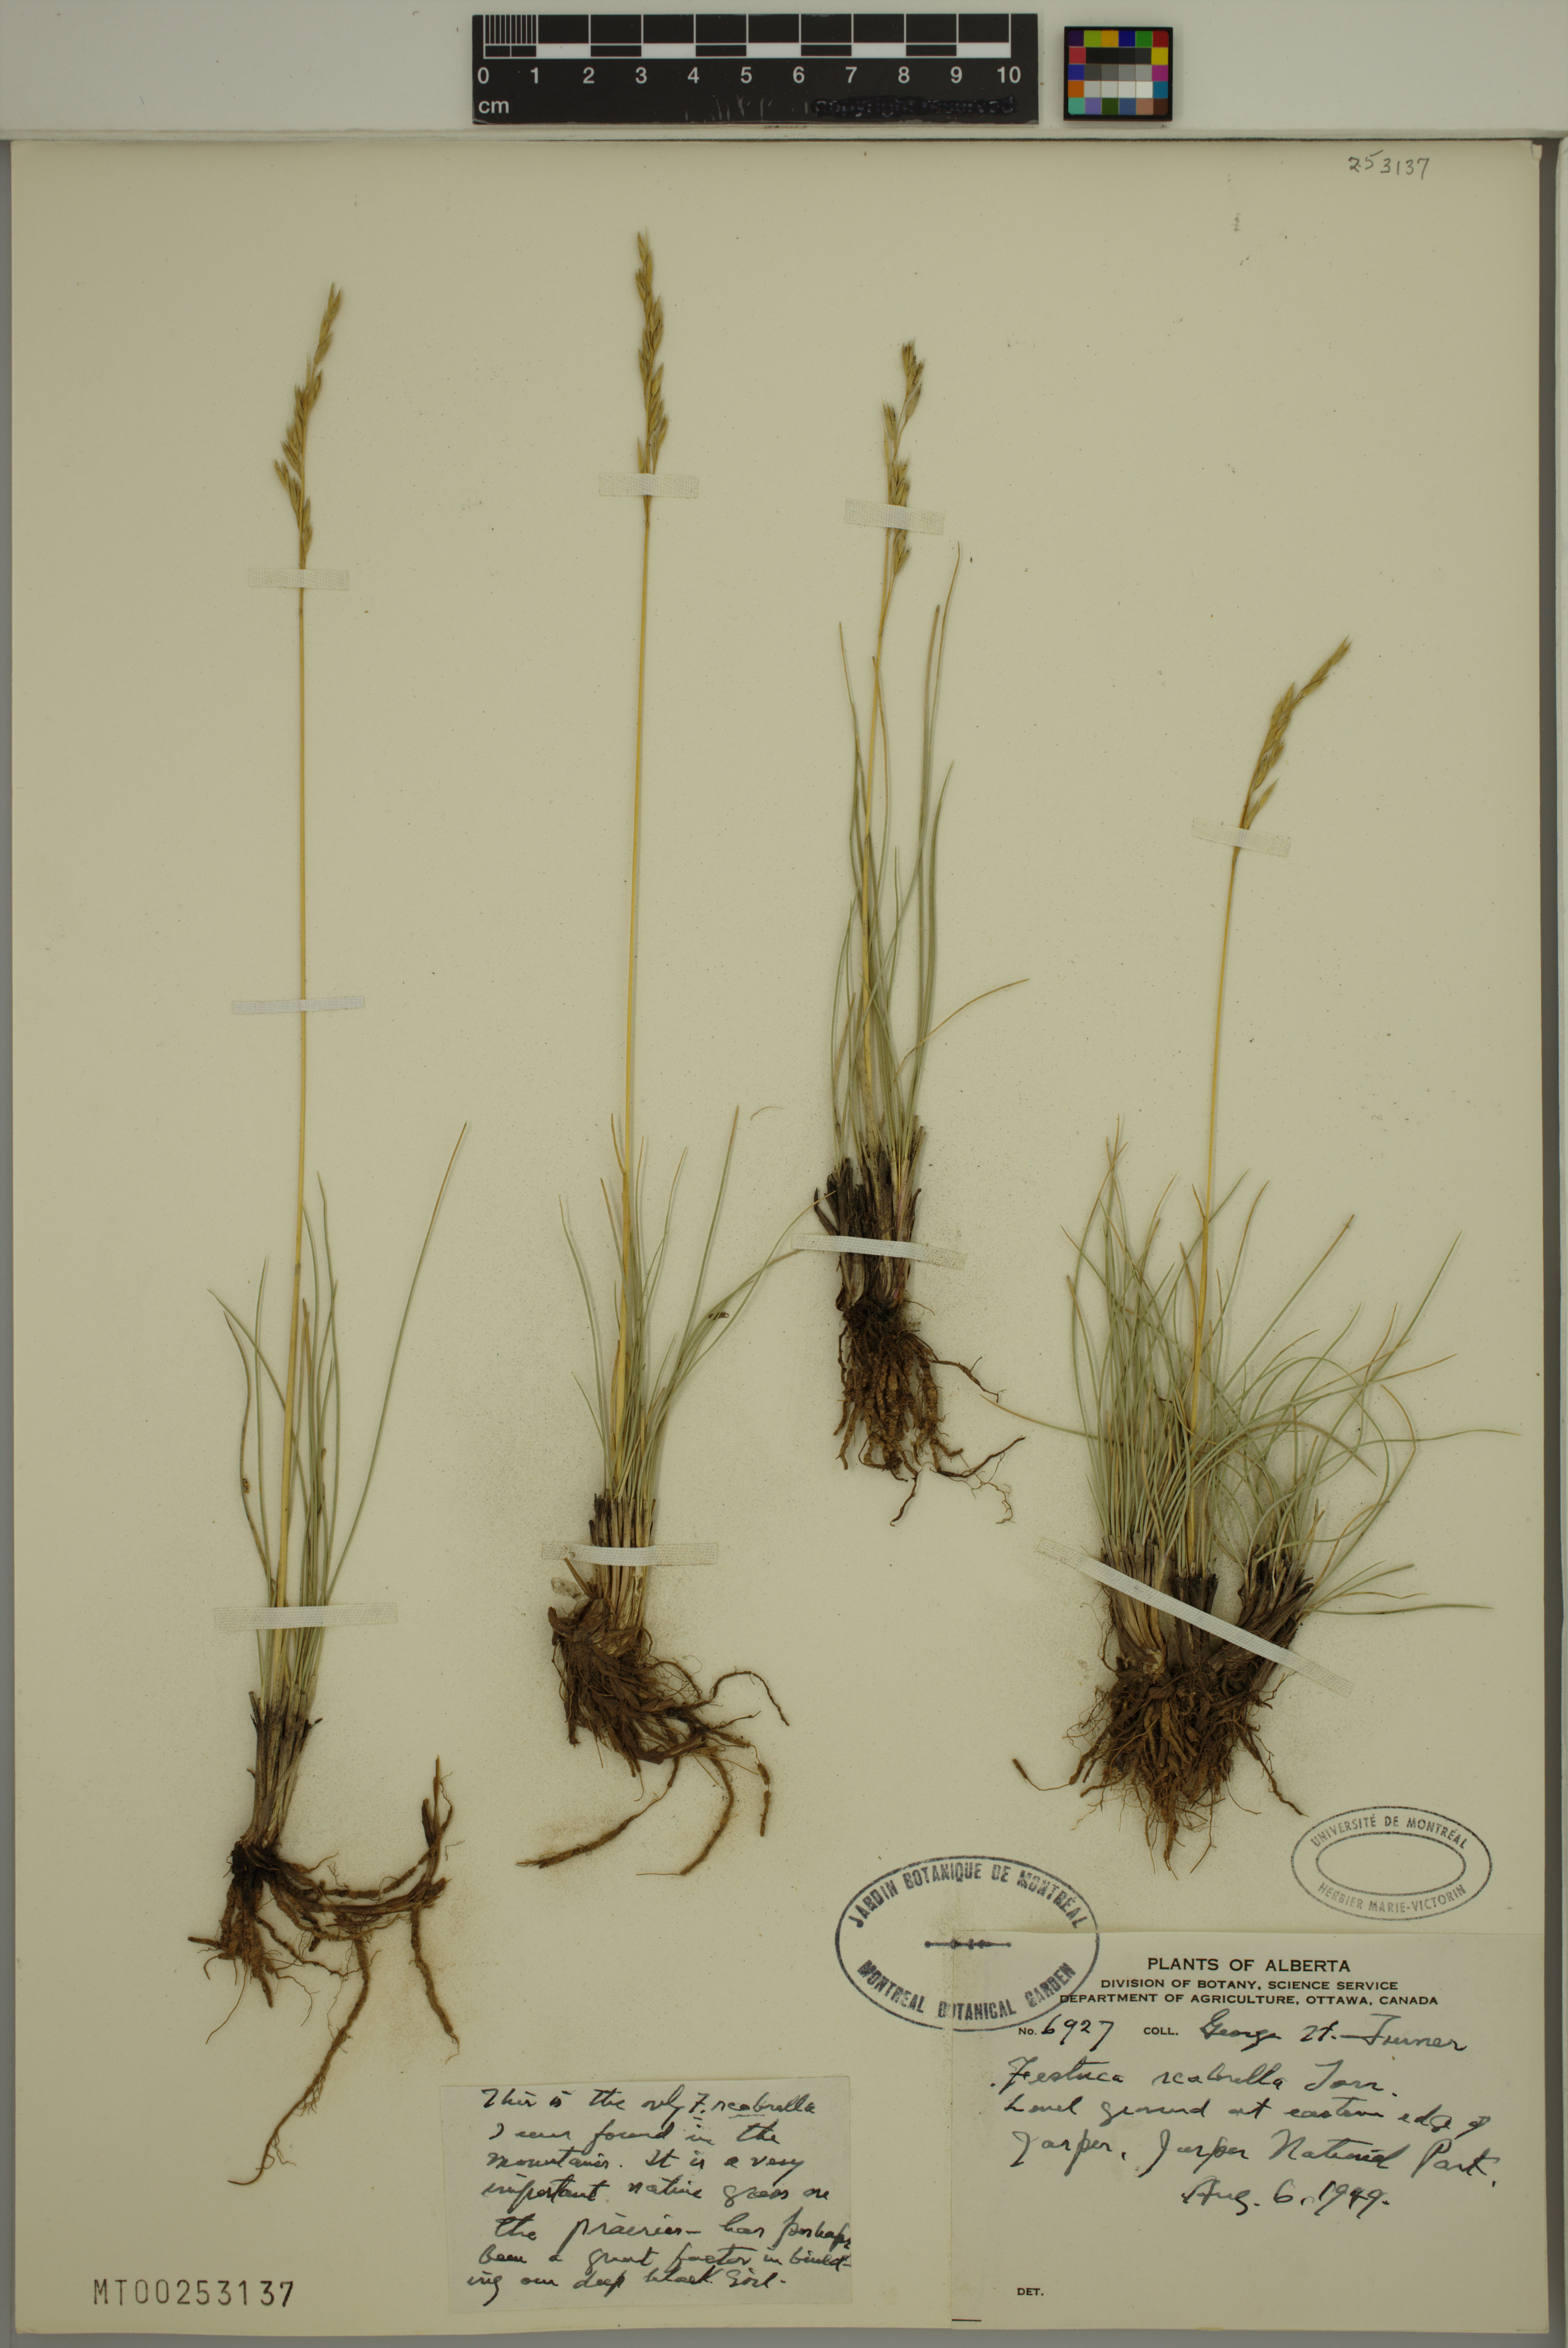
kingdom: Plantae
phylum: Tracheophyta
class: Liliopsida
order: Poales
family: Poaceae
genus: Festuca
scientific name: Festuca
